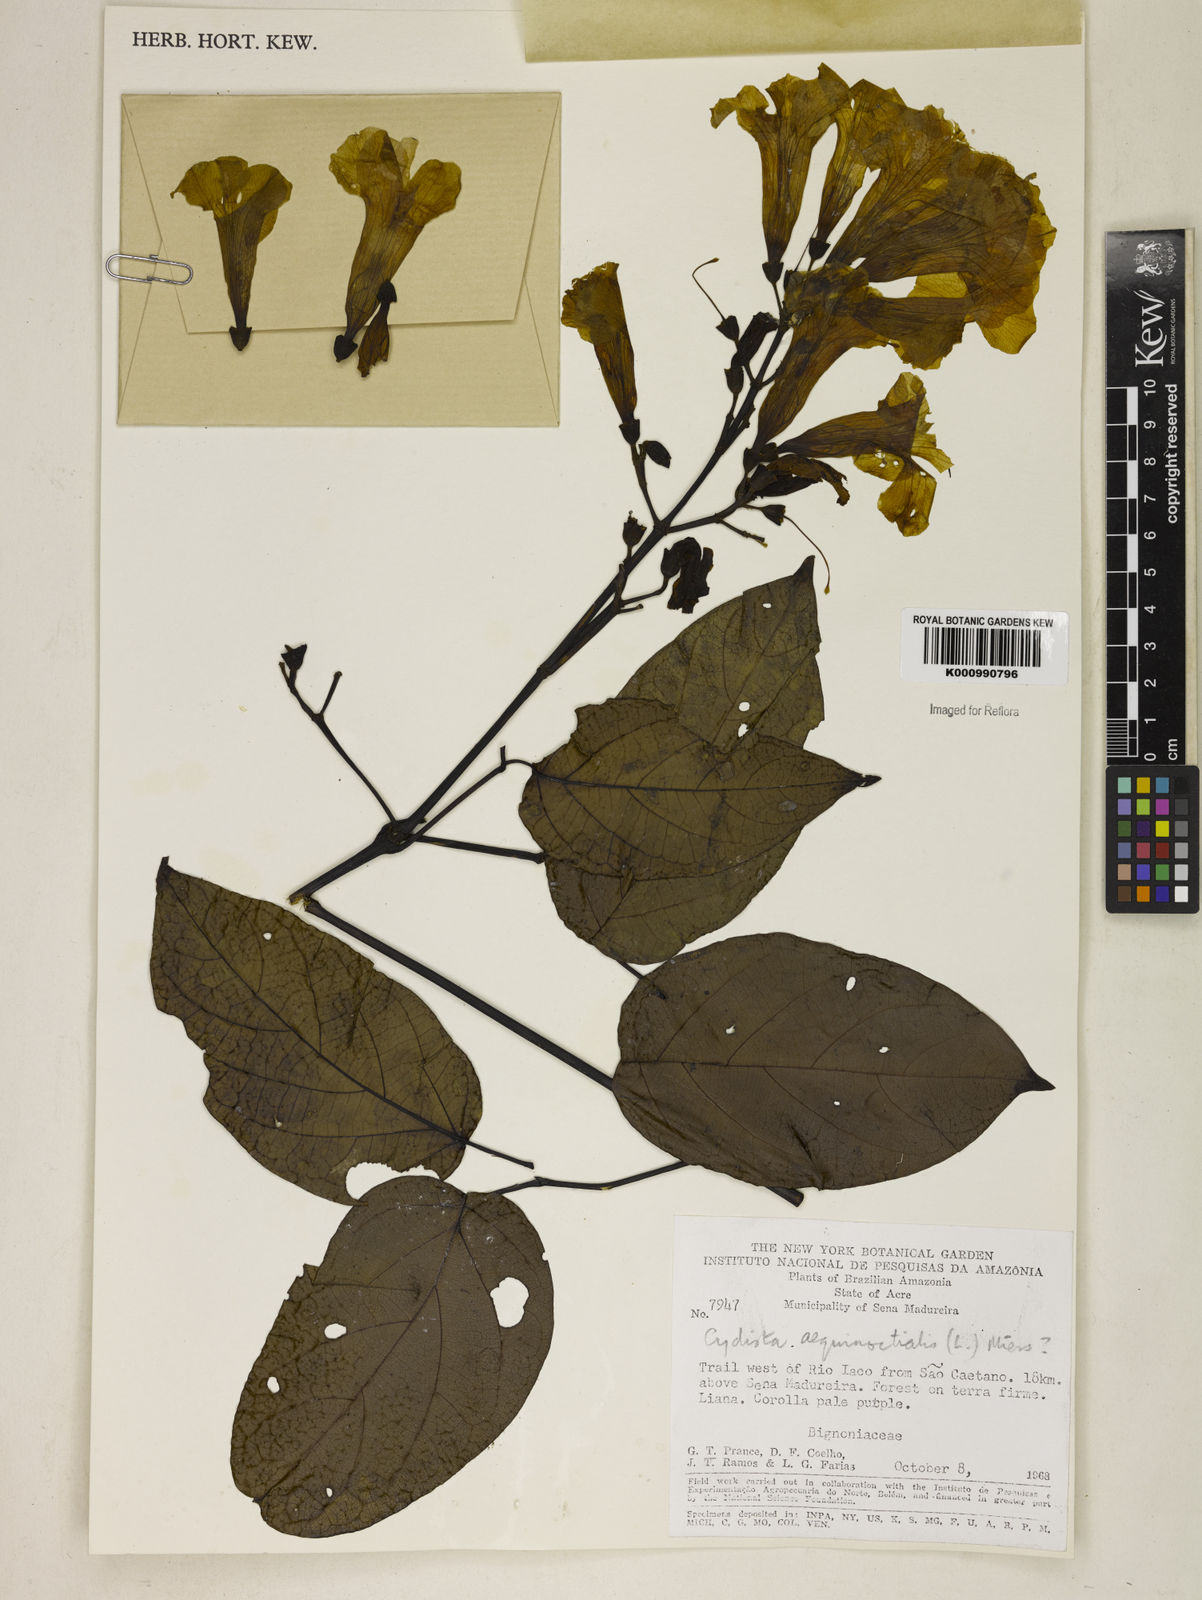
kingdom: Plantae
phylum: Tracheophyta
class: Magnoliopsida
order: Lamiales
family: Bignoniaceae
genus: Bignonia
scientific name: Bignonia aequinoctialis
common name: Garlicvine
